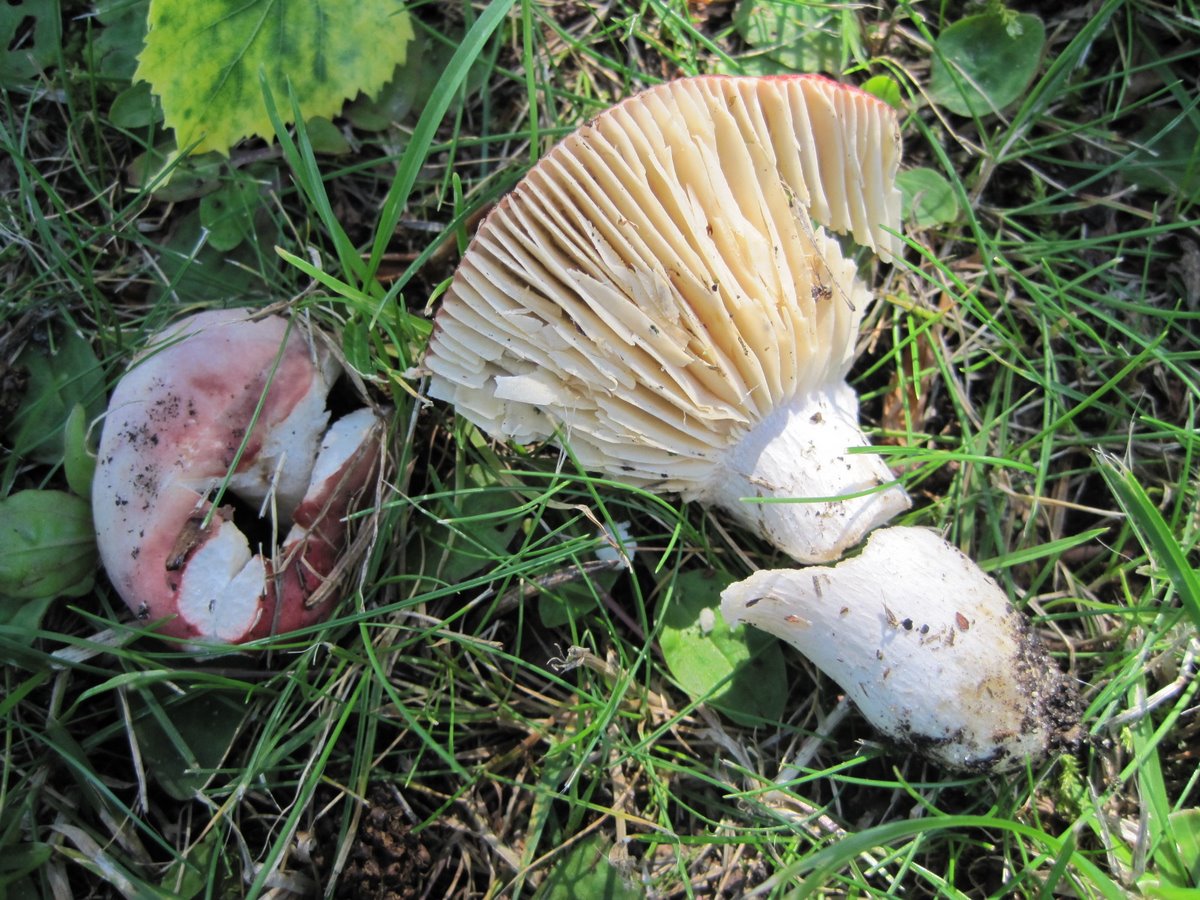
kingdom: Fungi
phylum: Basidiomycota
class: Agaricomycetes
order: Russulales
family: Russulaceae
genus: Russula
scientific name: Russula depallens
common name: falmende skørhat
